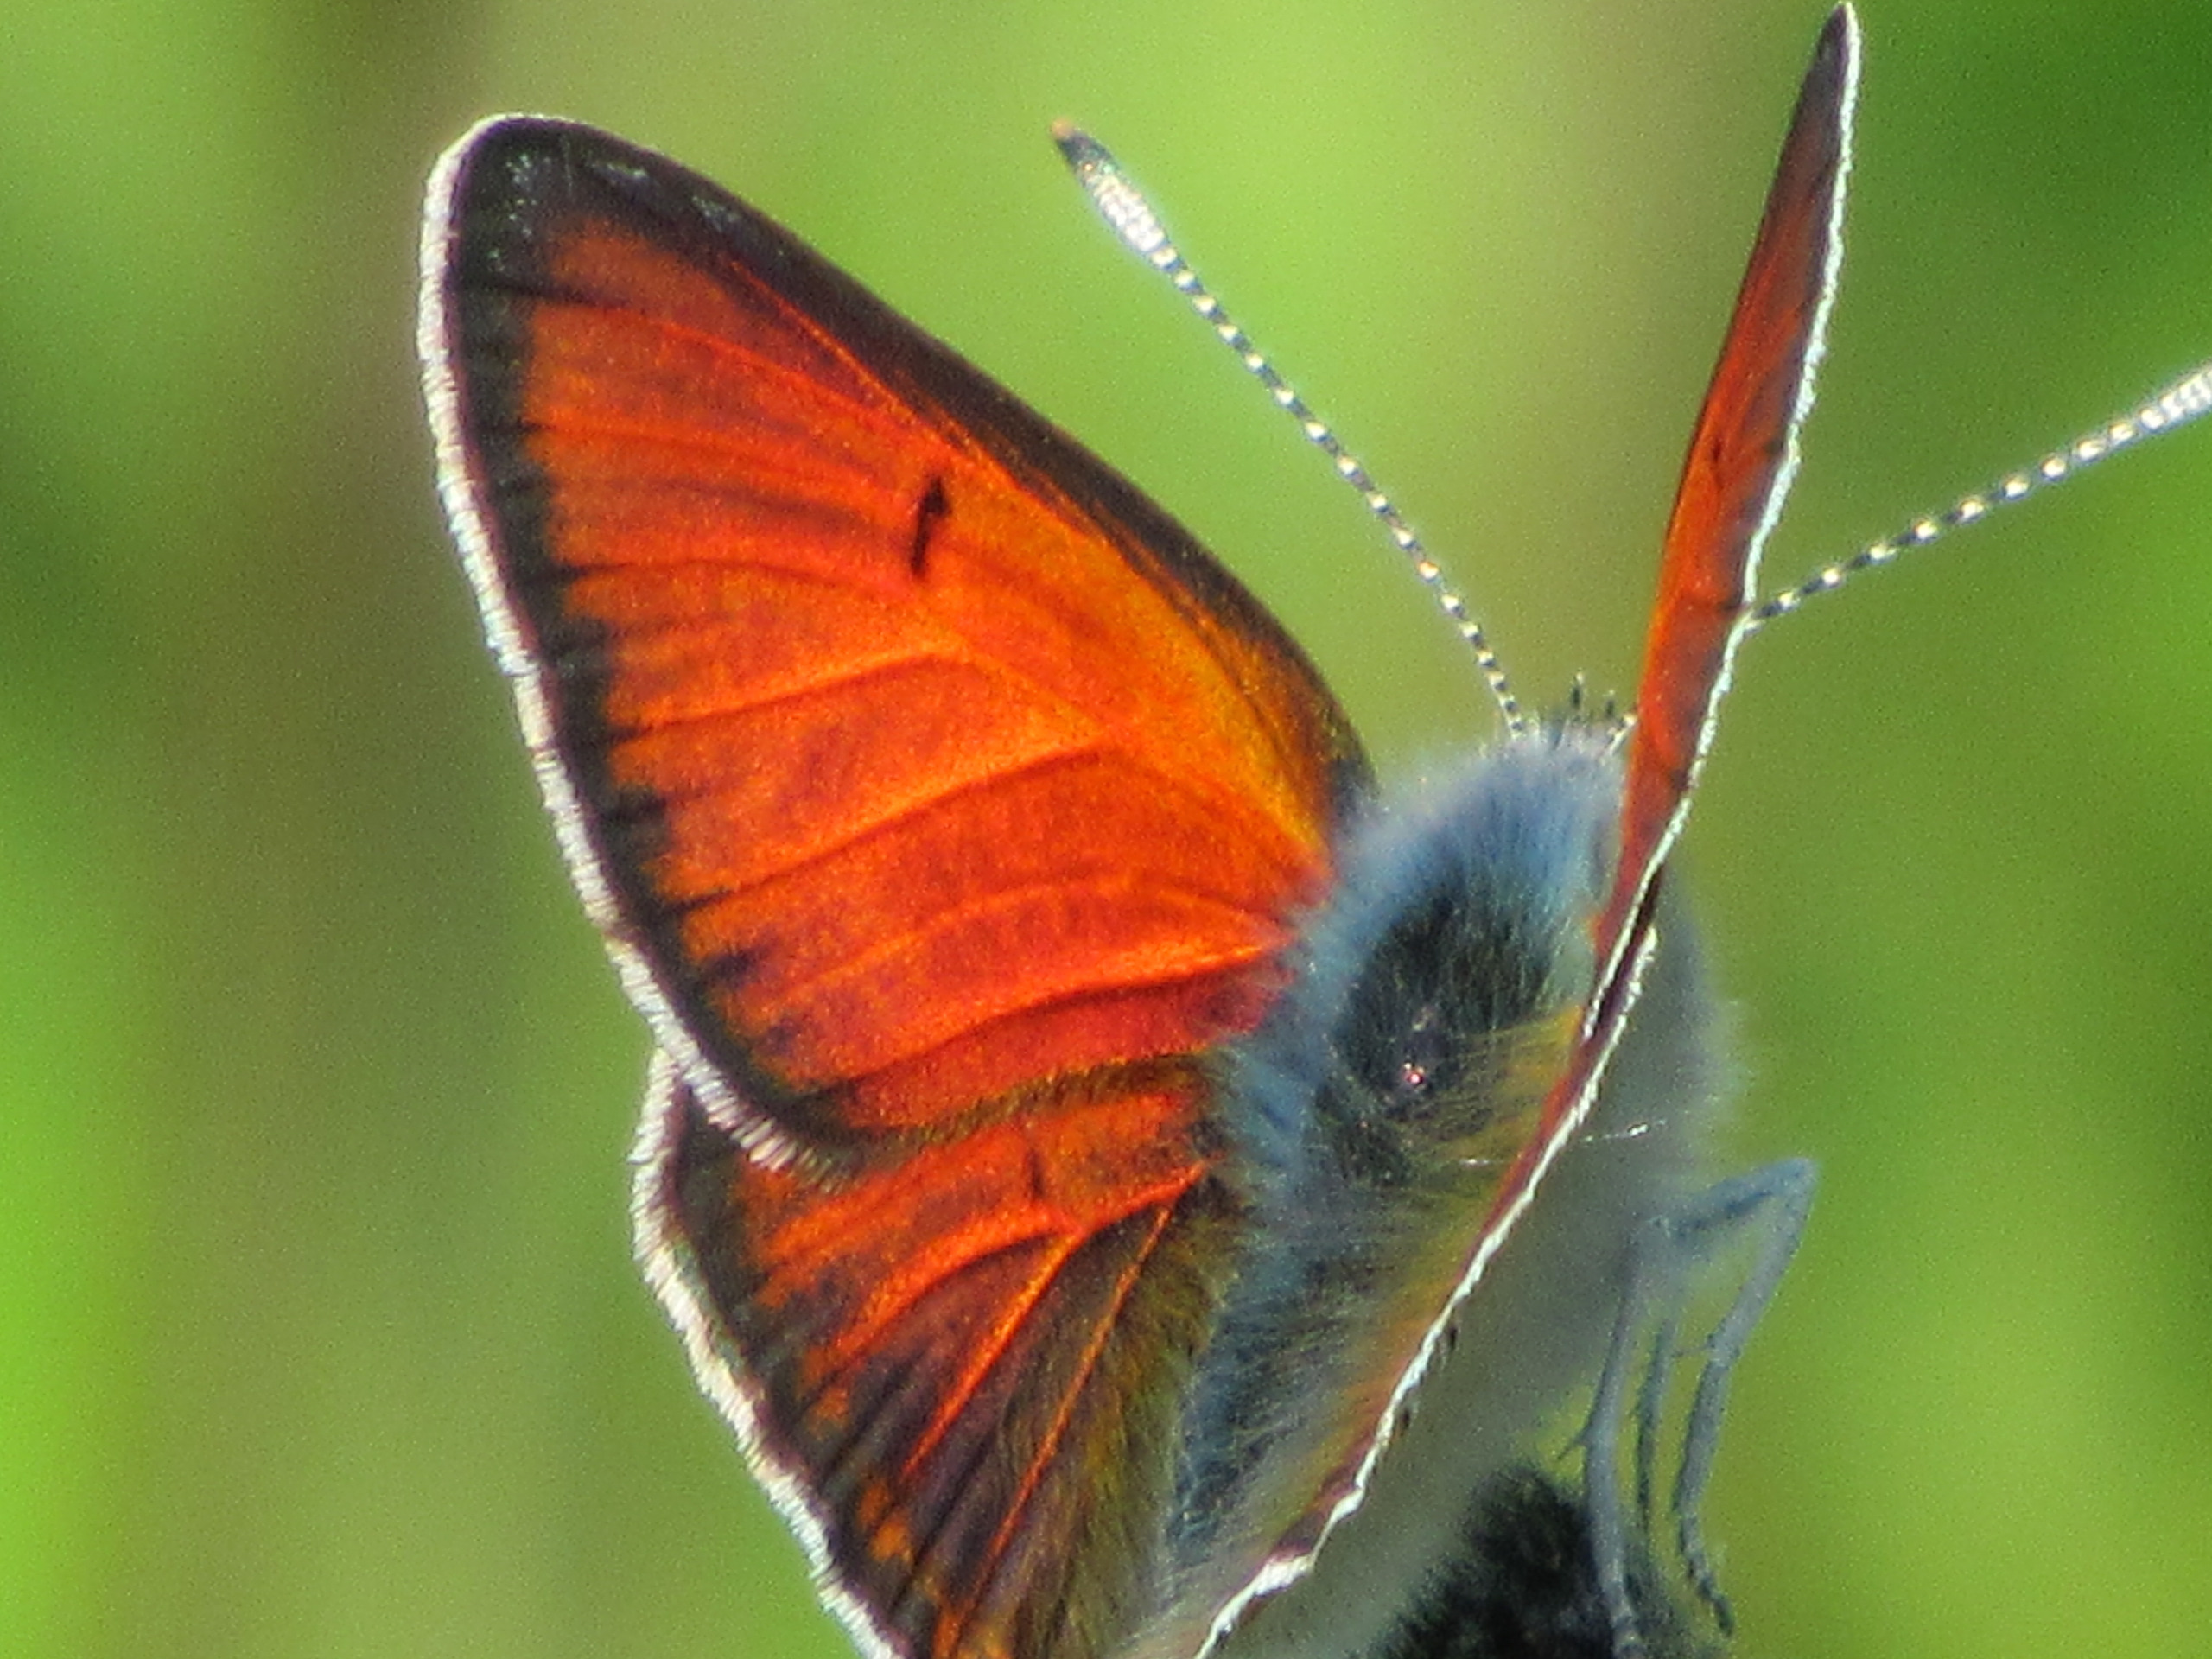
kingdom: Animalia
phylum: Arthropoda
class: Insecta
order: Lepidoptera
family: Lycaenidae
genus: Palaeochrysophanus
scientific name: Palaeochrysophanus hippothoe
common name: Violetrandet ildfugl
